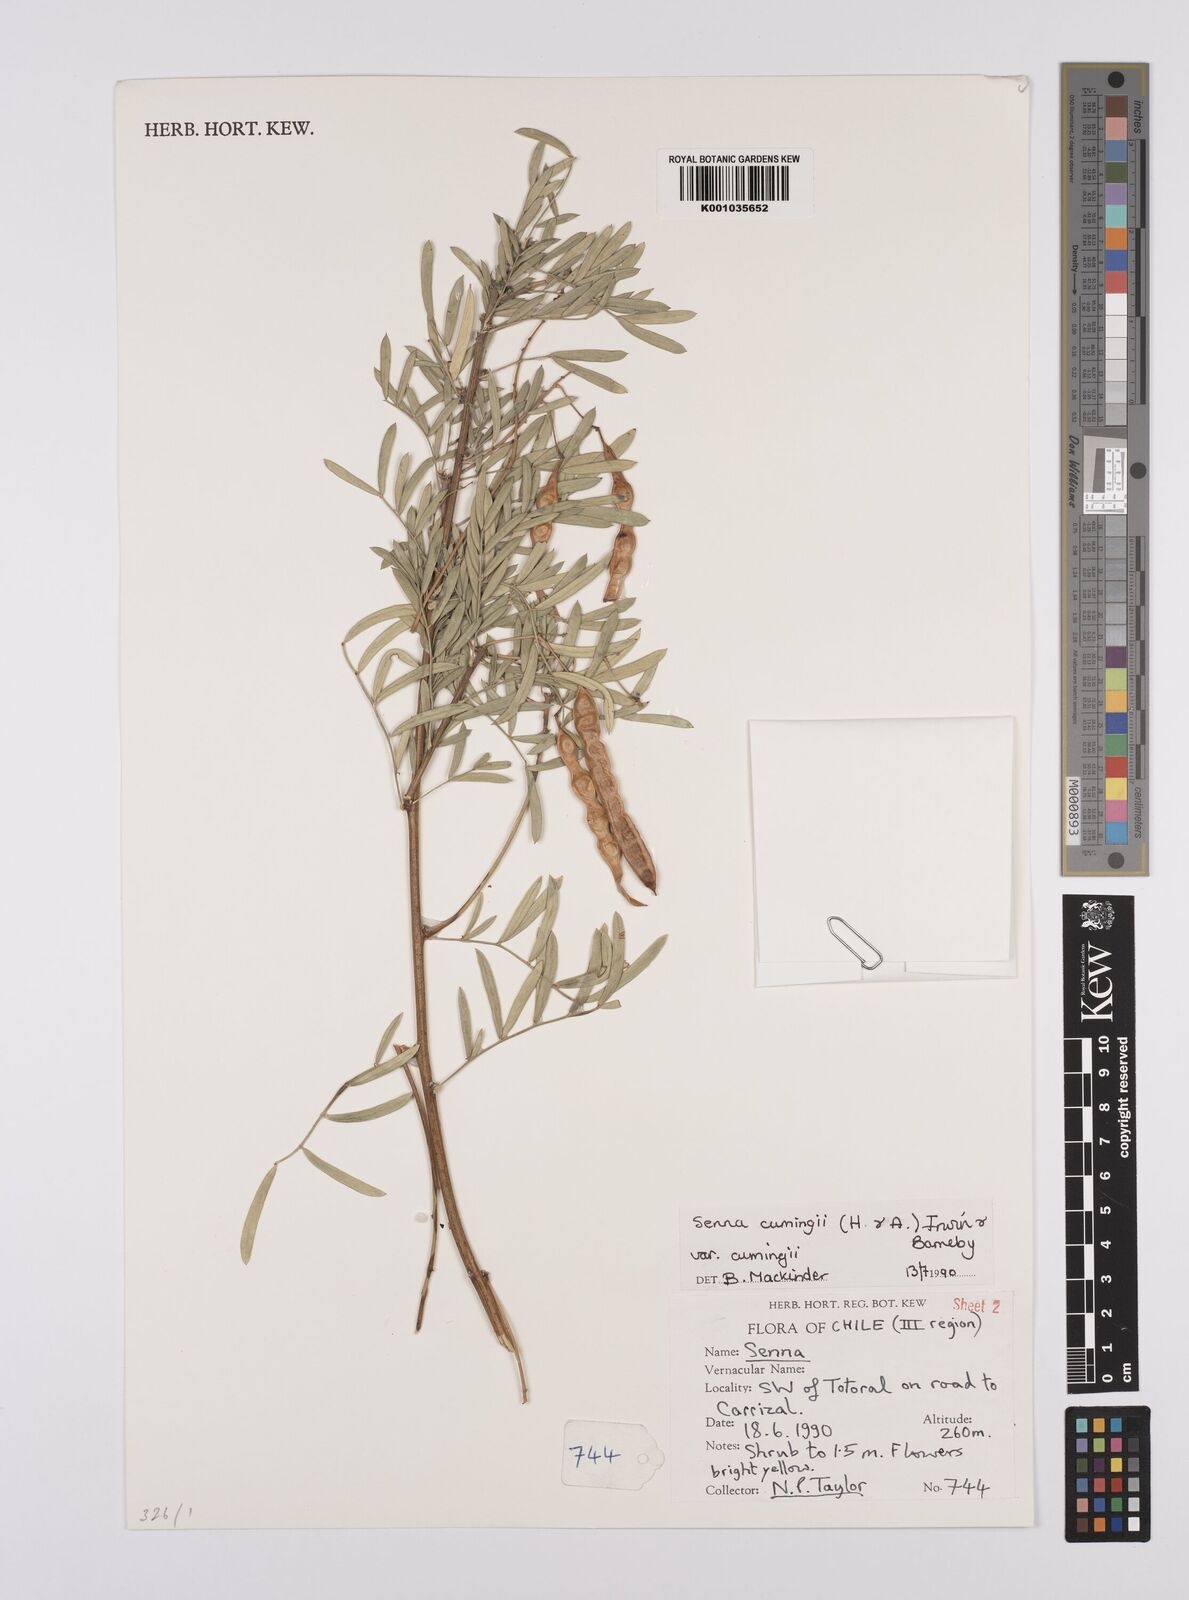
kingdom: Plantae
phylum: Tracheophyta
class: Magnoliopsida
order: Fabales
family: Fabaceae
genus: Senna
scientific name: Senna cumingii
